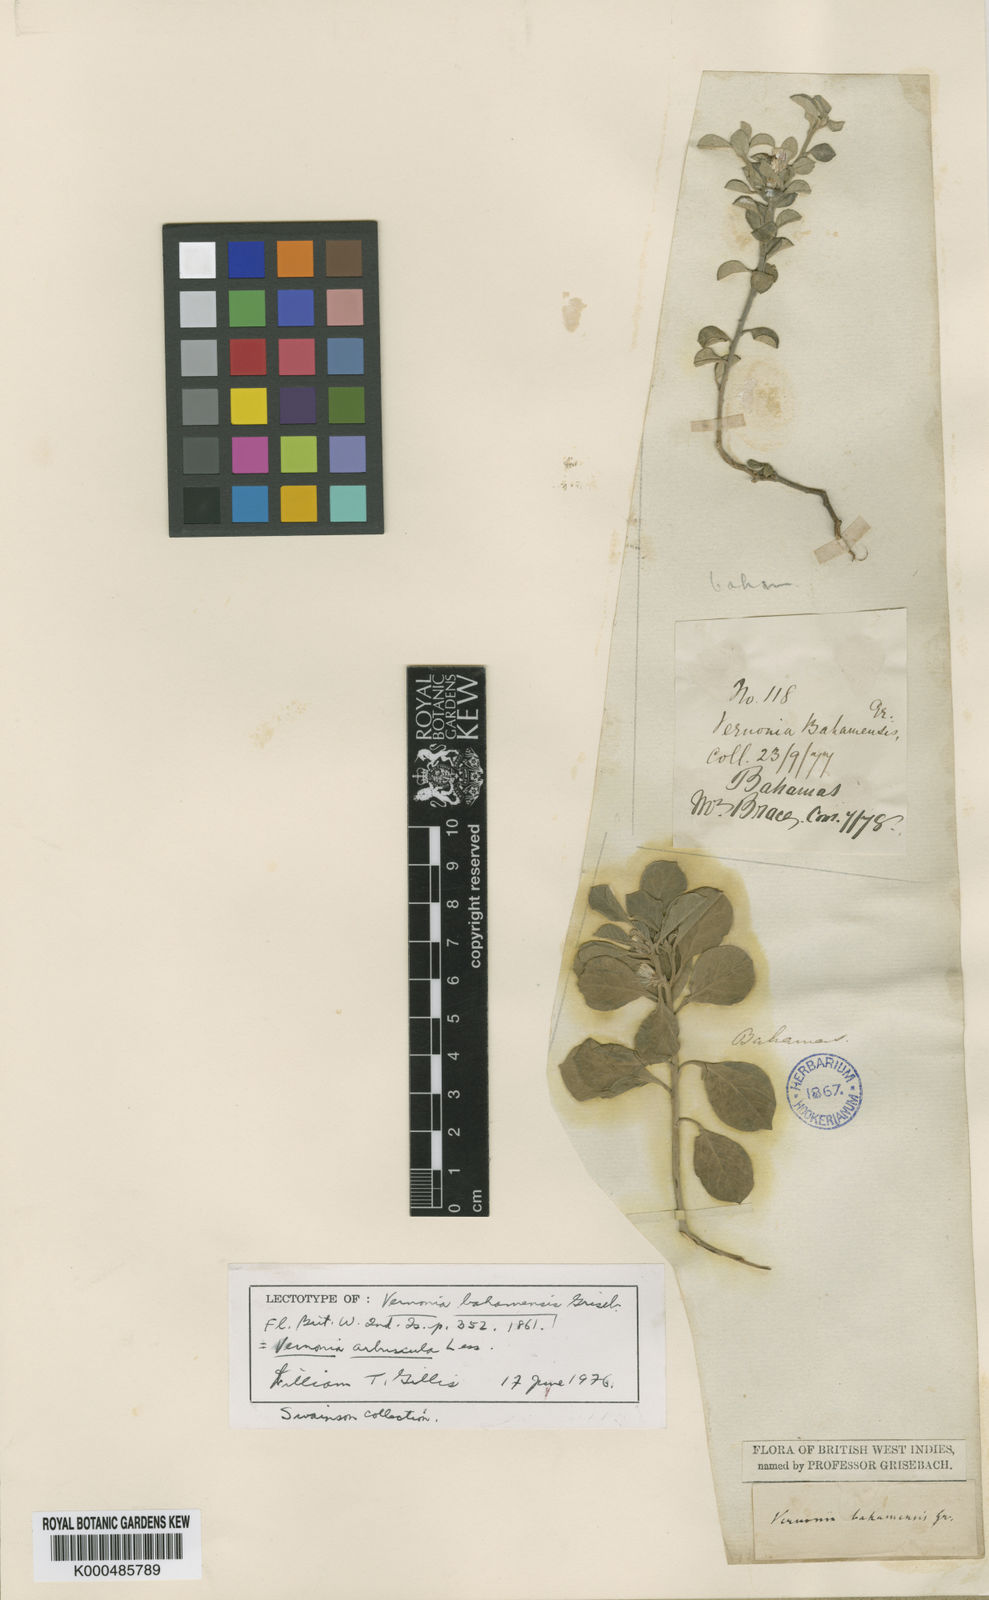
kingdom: Plantae
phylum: Tracheophyta
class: Magnoliopsida
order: Asterales
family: Asteraceae
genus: Lepidaploa
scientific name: Lepidaploa arbuscula
